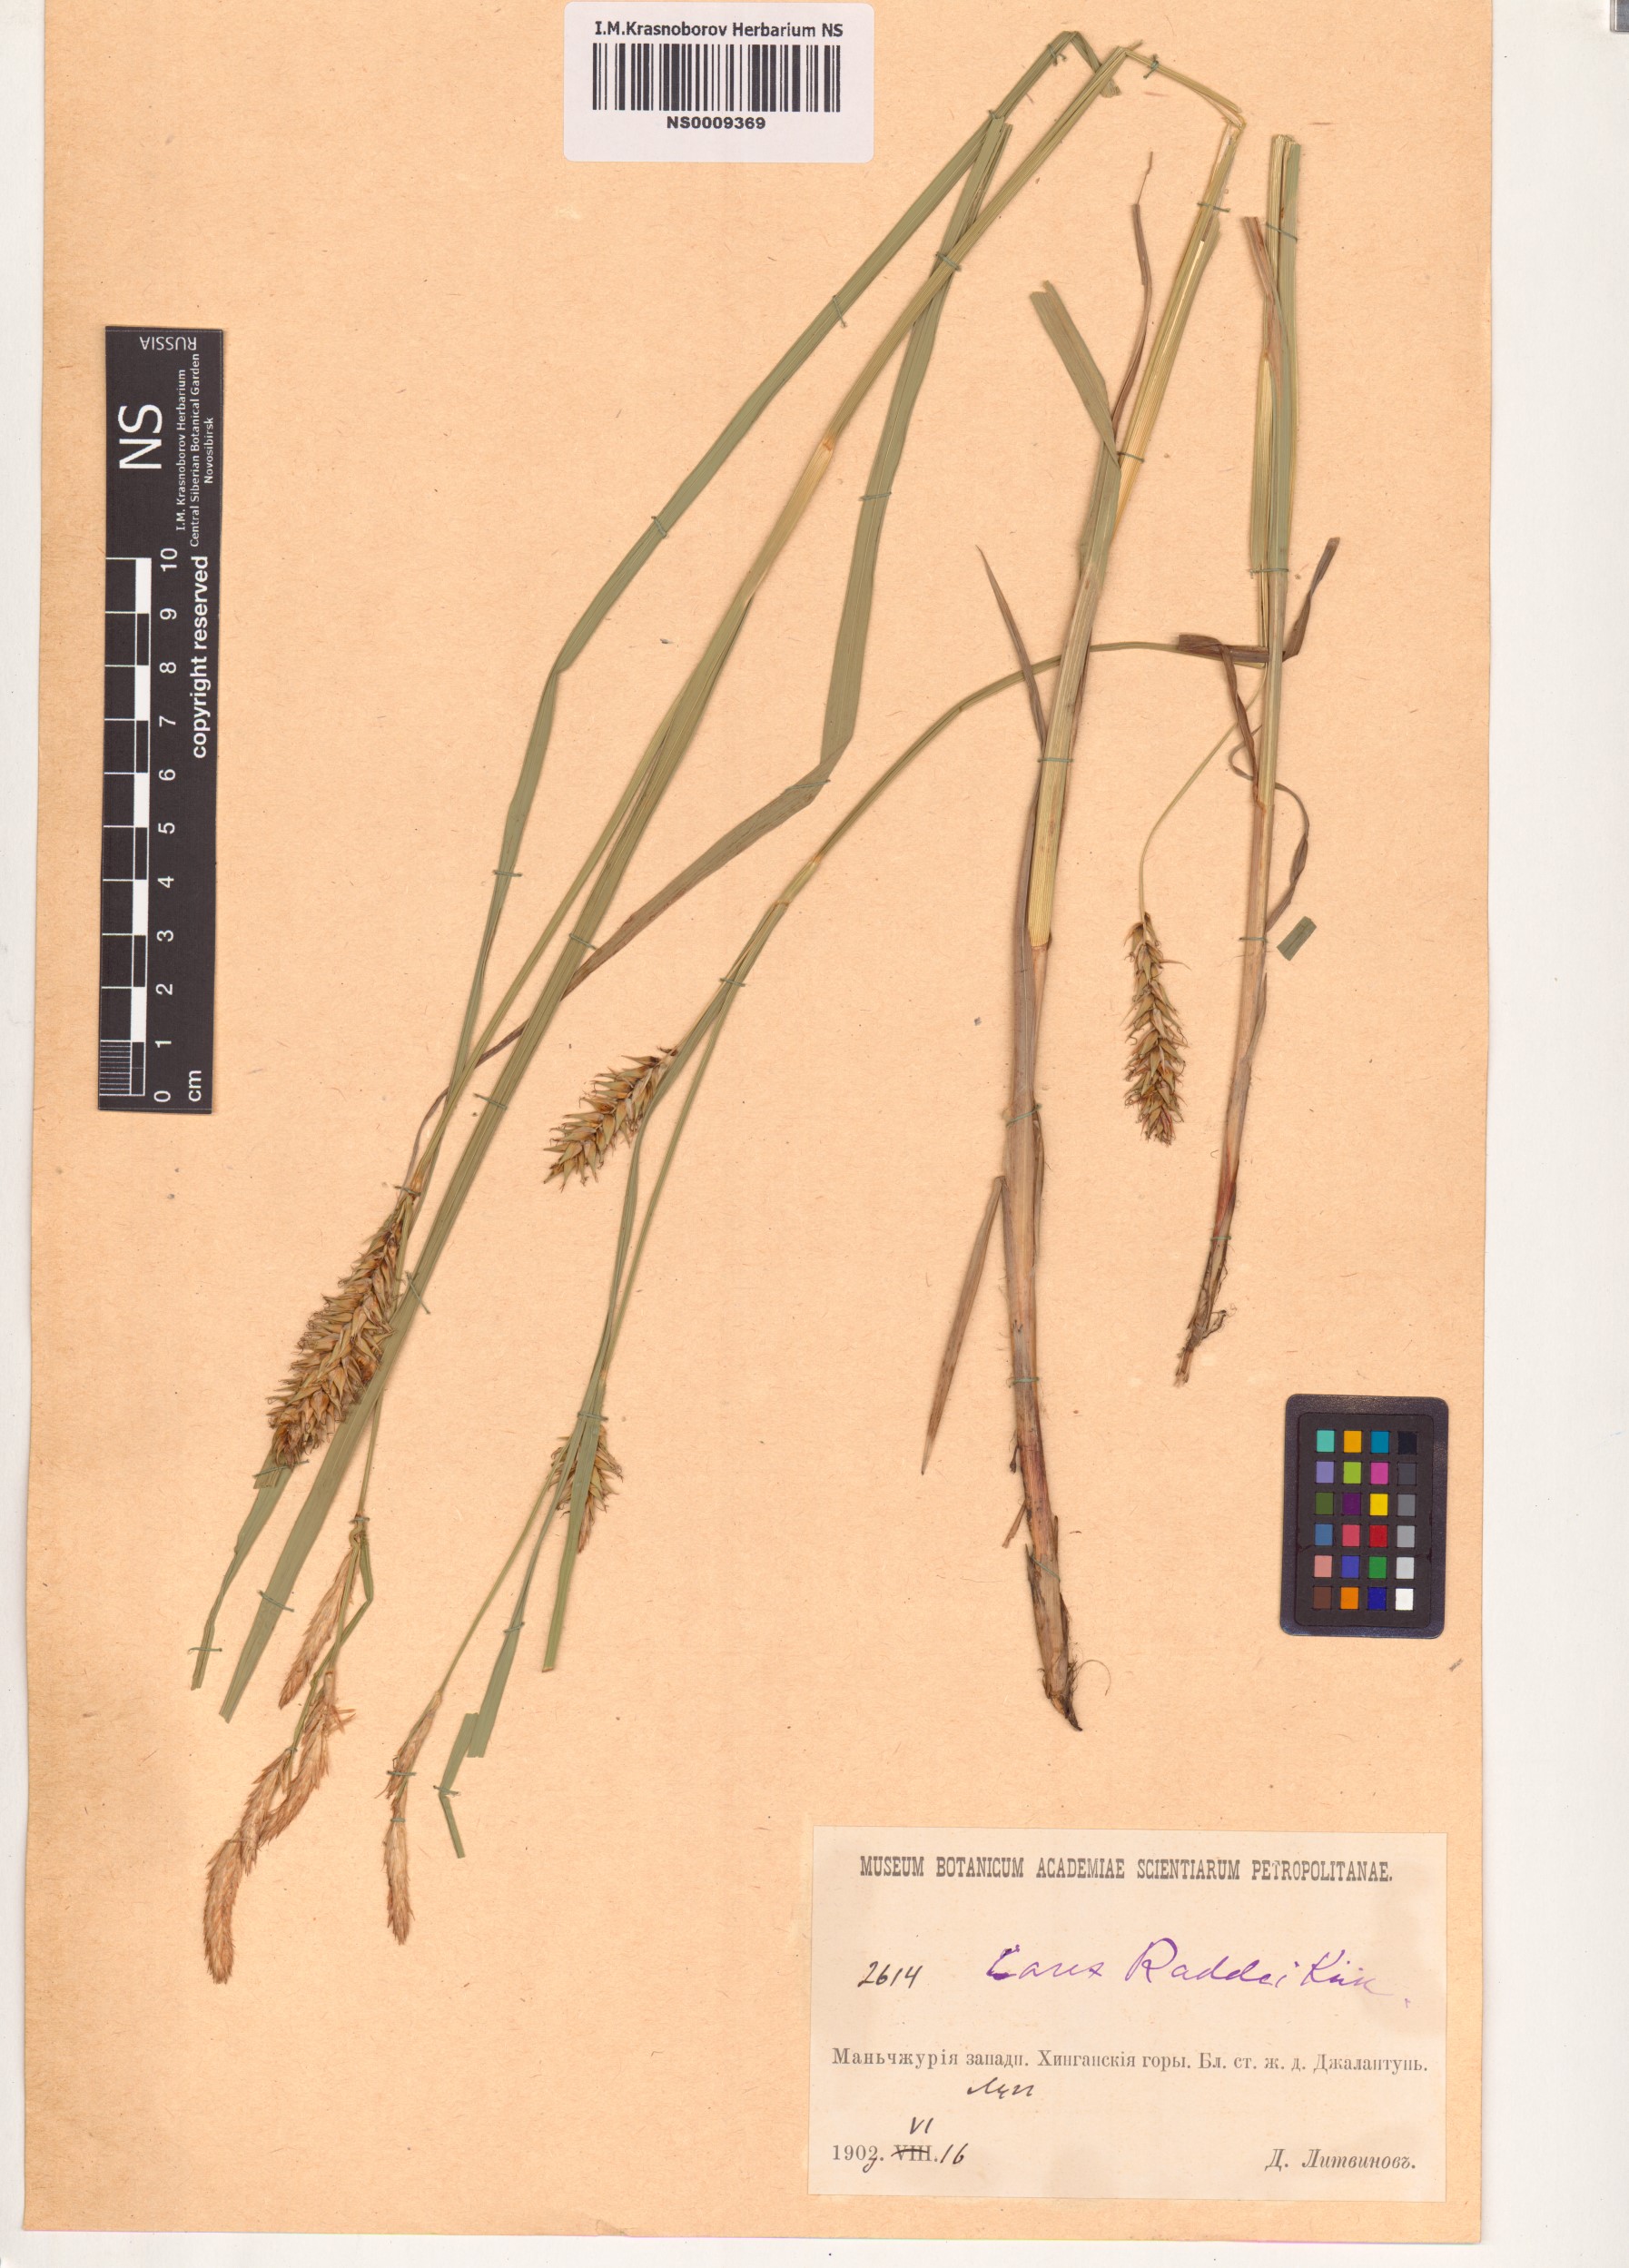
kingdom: Plantae
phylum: Tracheophyta
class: Liliopsida
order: Poales
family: Cyperaceae
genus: Carex
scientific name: Carex raddei
